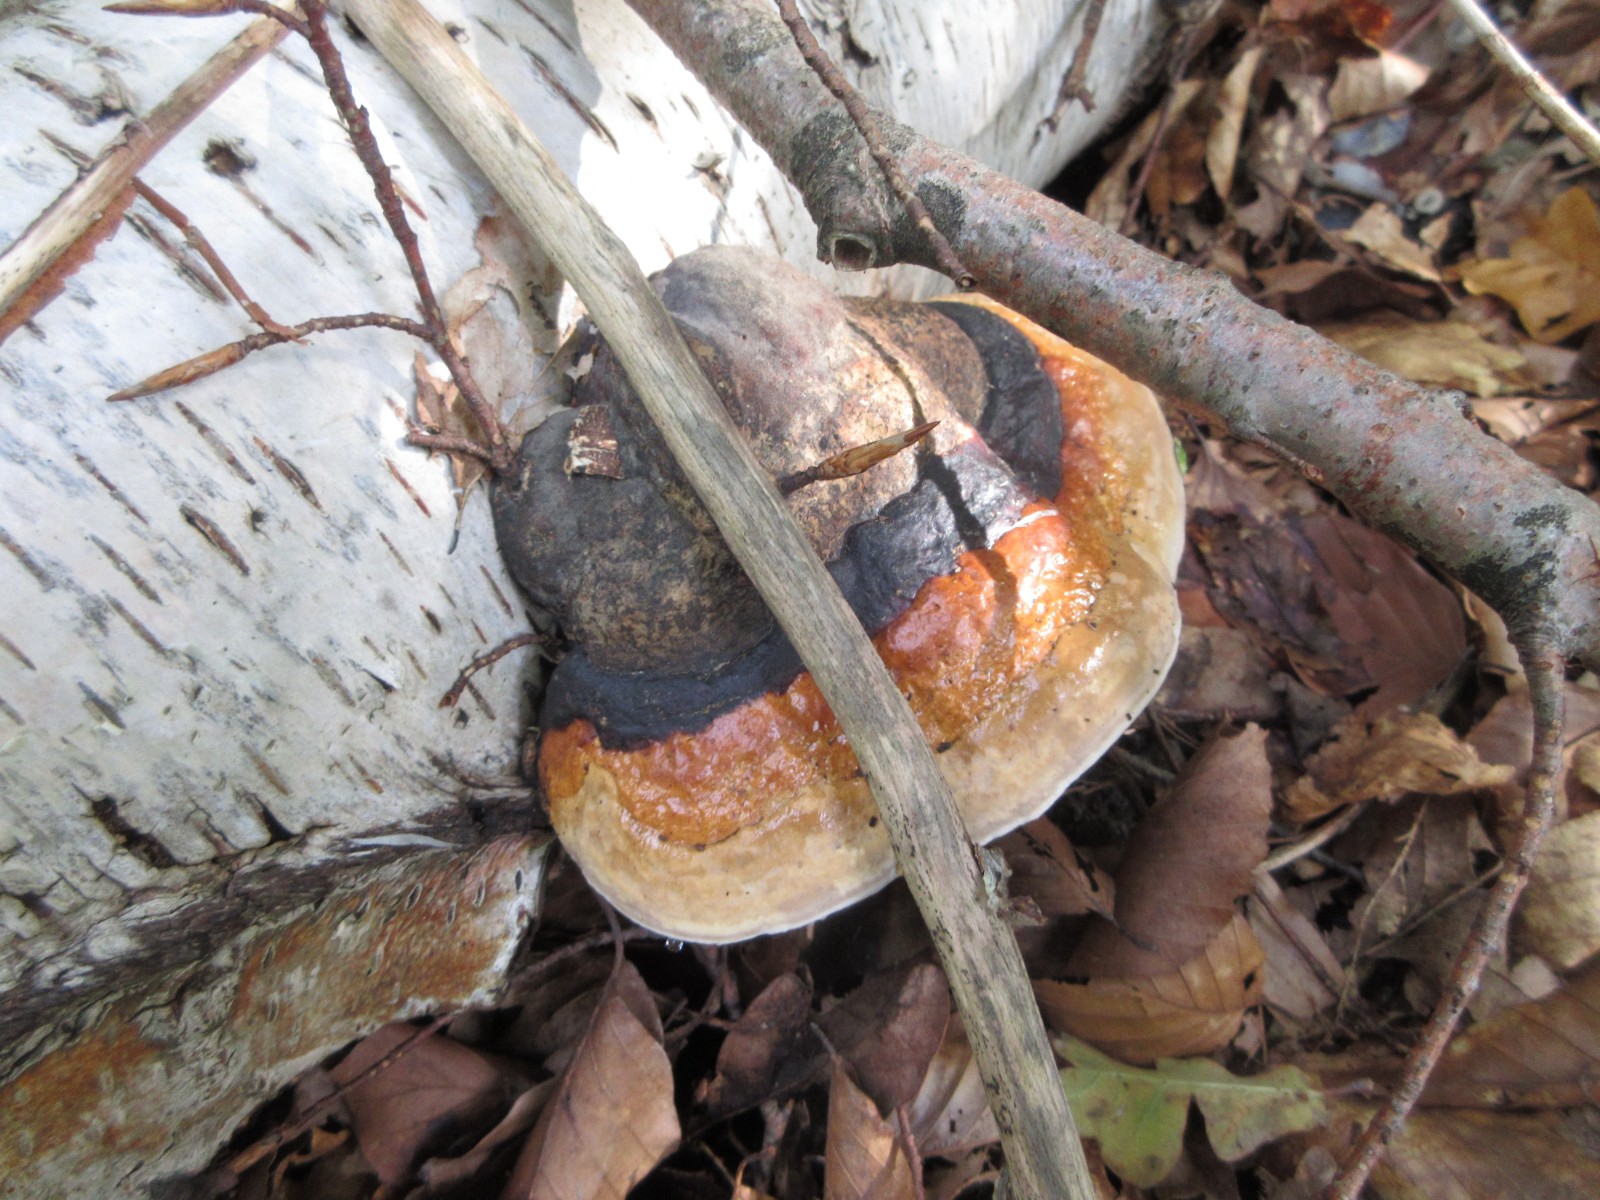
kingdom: Fungi
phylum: Basidiomycota
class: Agaricomycetes
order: Polyporales
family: Fomitopsidaceae
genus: Fomitopsis
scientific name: Fomitopsis pinicola
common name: randbæltet hovporesvamp
